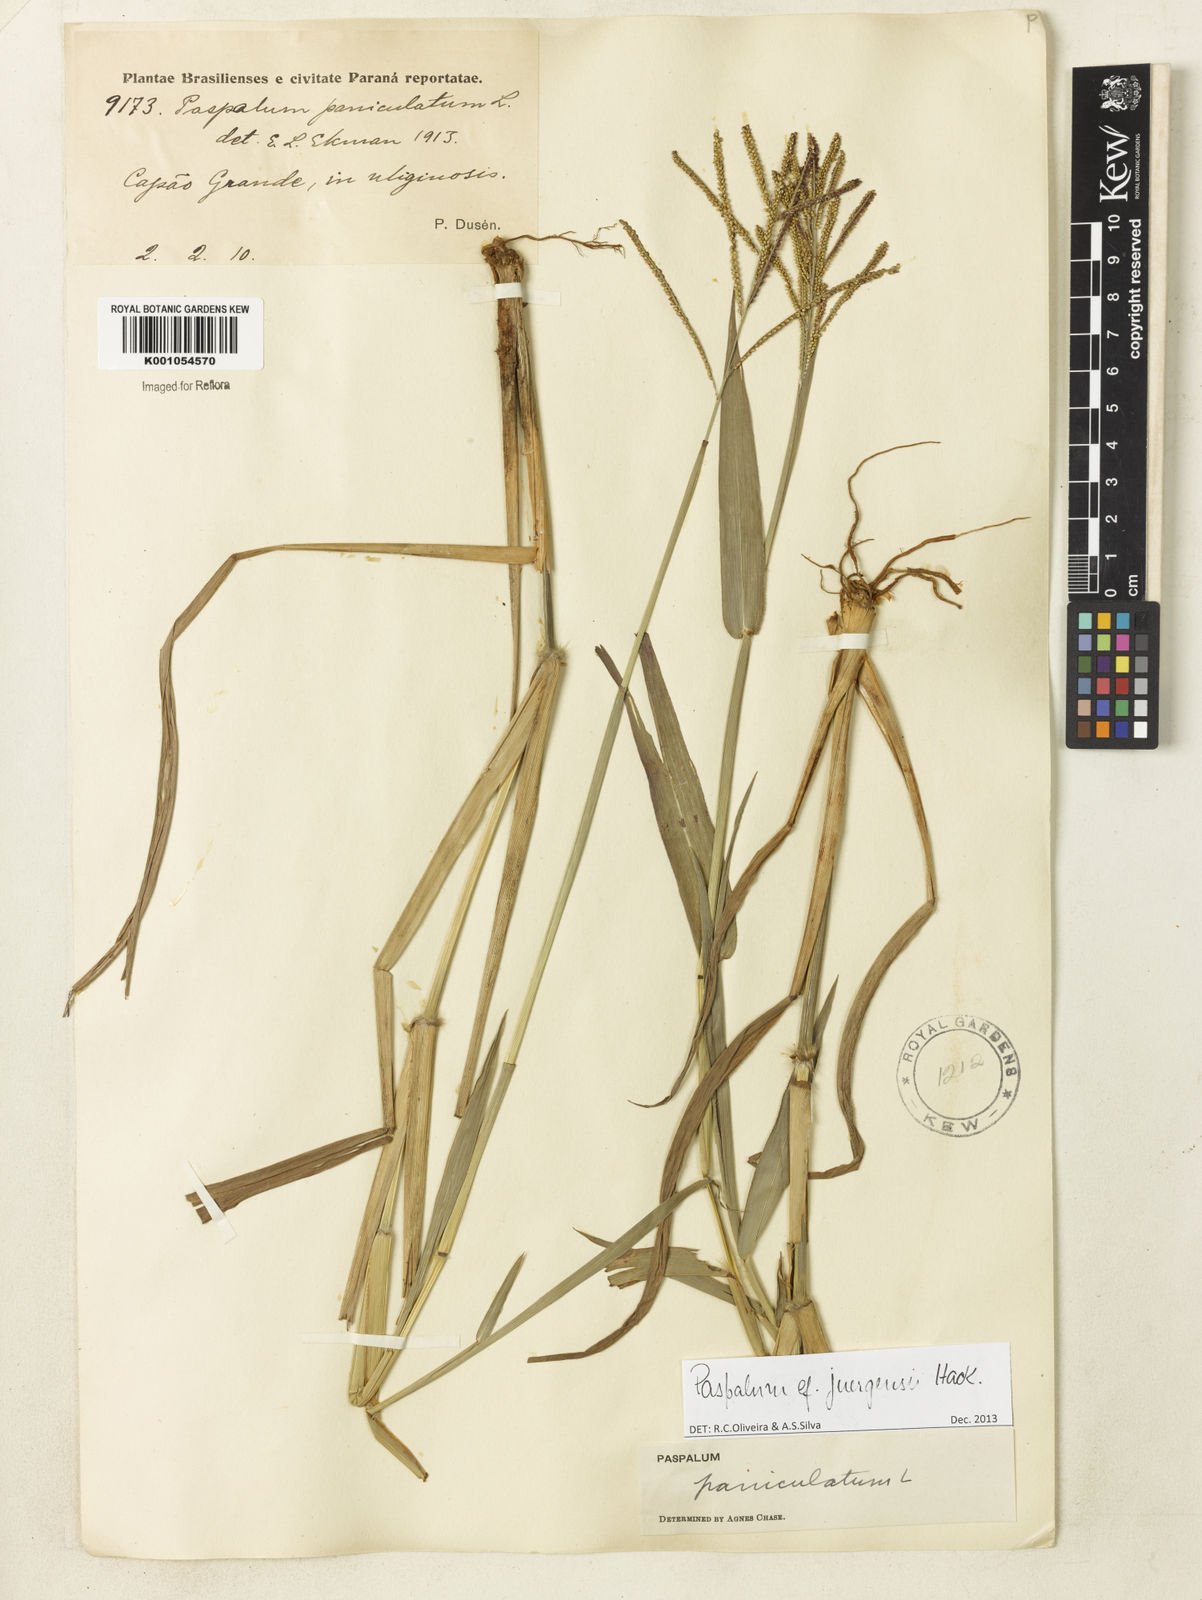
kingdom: Plantae
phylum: Tracheophyta
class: Liliopsida
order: Poales
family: Poaceae
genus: Paspalum
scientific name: Paspalum juergensii
